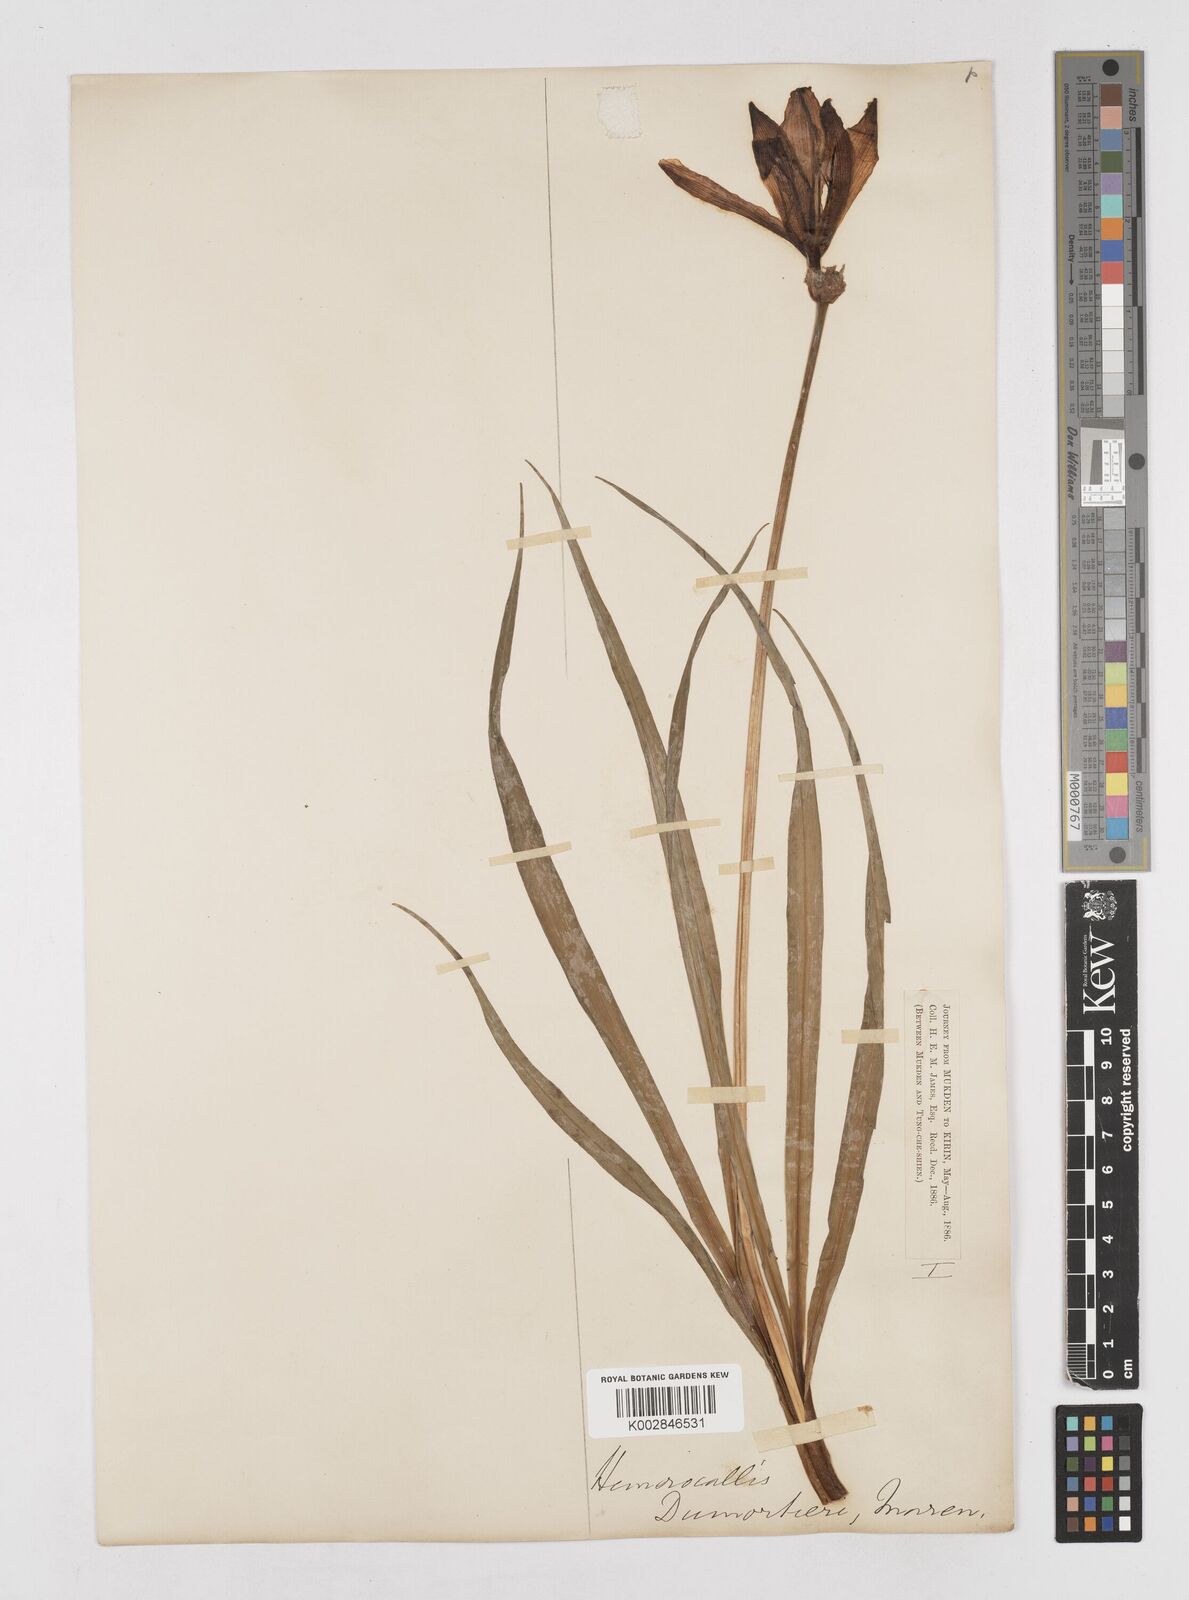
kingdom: Plantae
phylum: Tracheophyta
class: Liliopsida
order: Asparagales
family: Asphodelaceae
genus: Hemerocallis
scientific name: Hemerocallis middendorffii
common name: Amur day-lily
